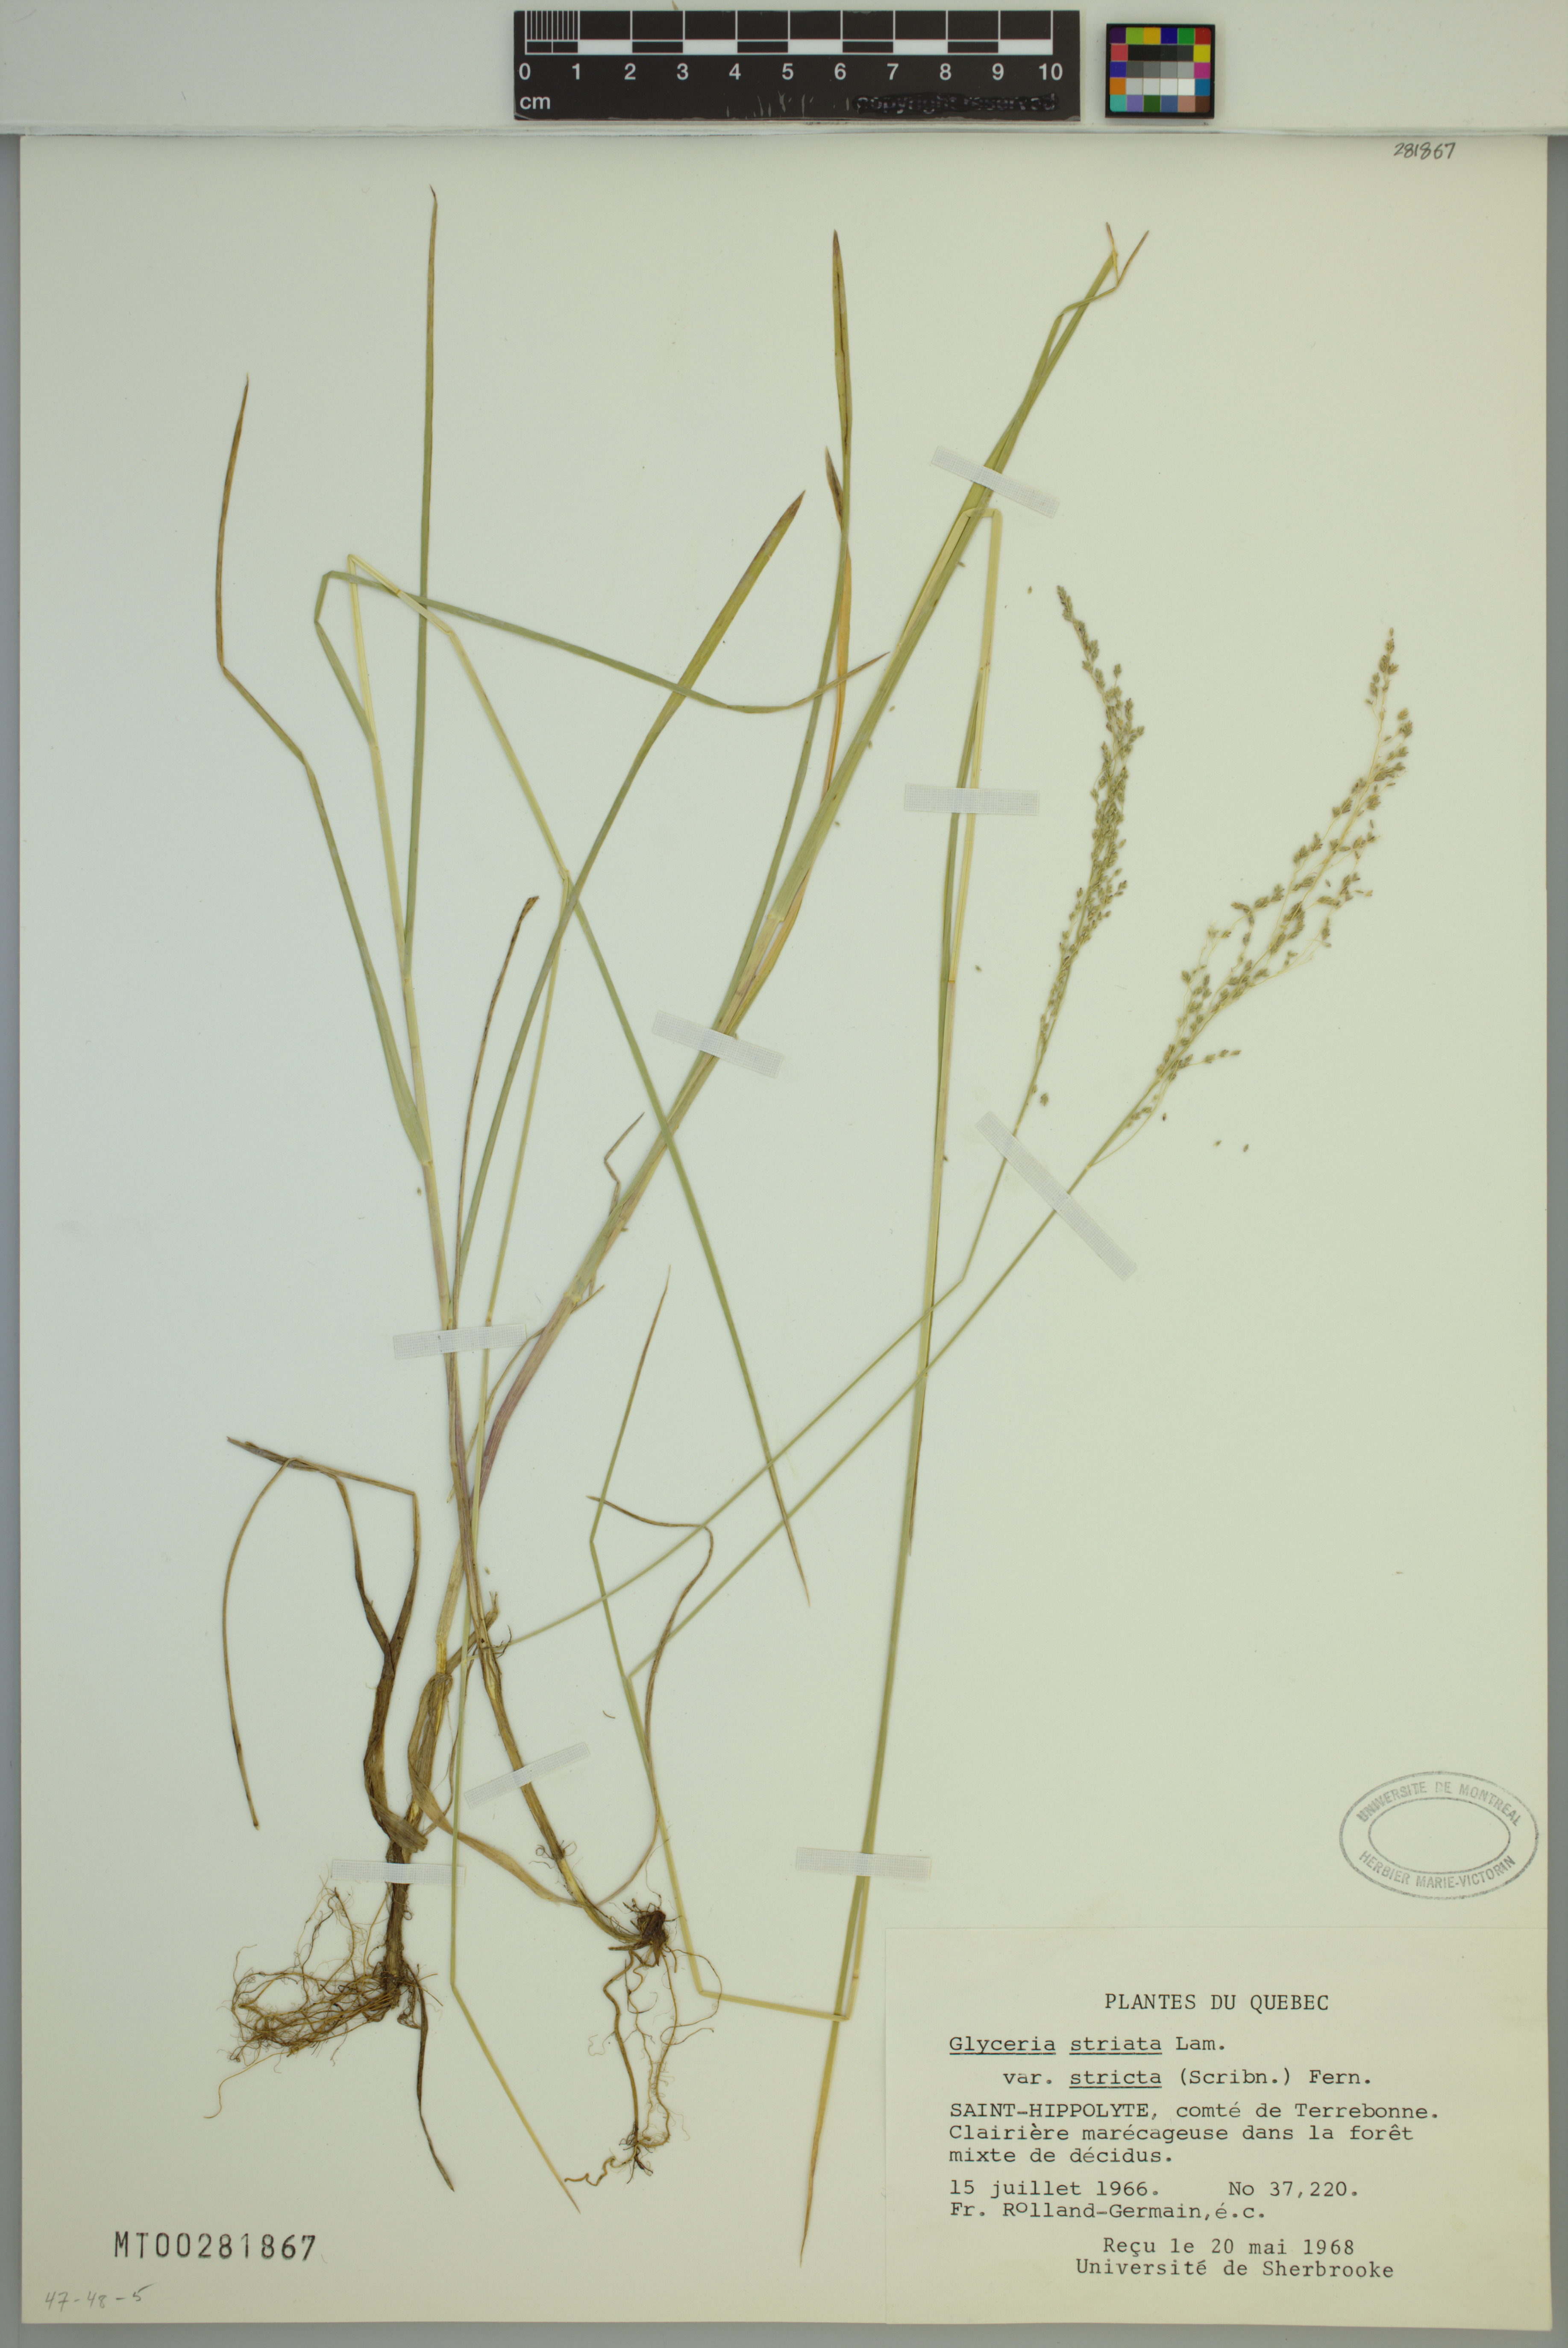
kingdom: Plantae
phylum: Tracheophyta
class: Liliopsida
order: Poales
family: Poaceae
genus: Glyceria
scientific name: Glyceria striata
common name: Fowl manna grass
